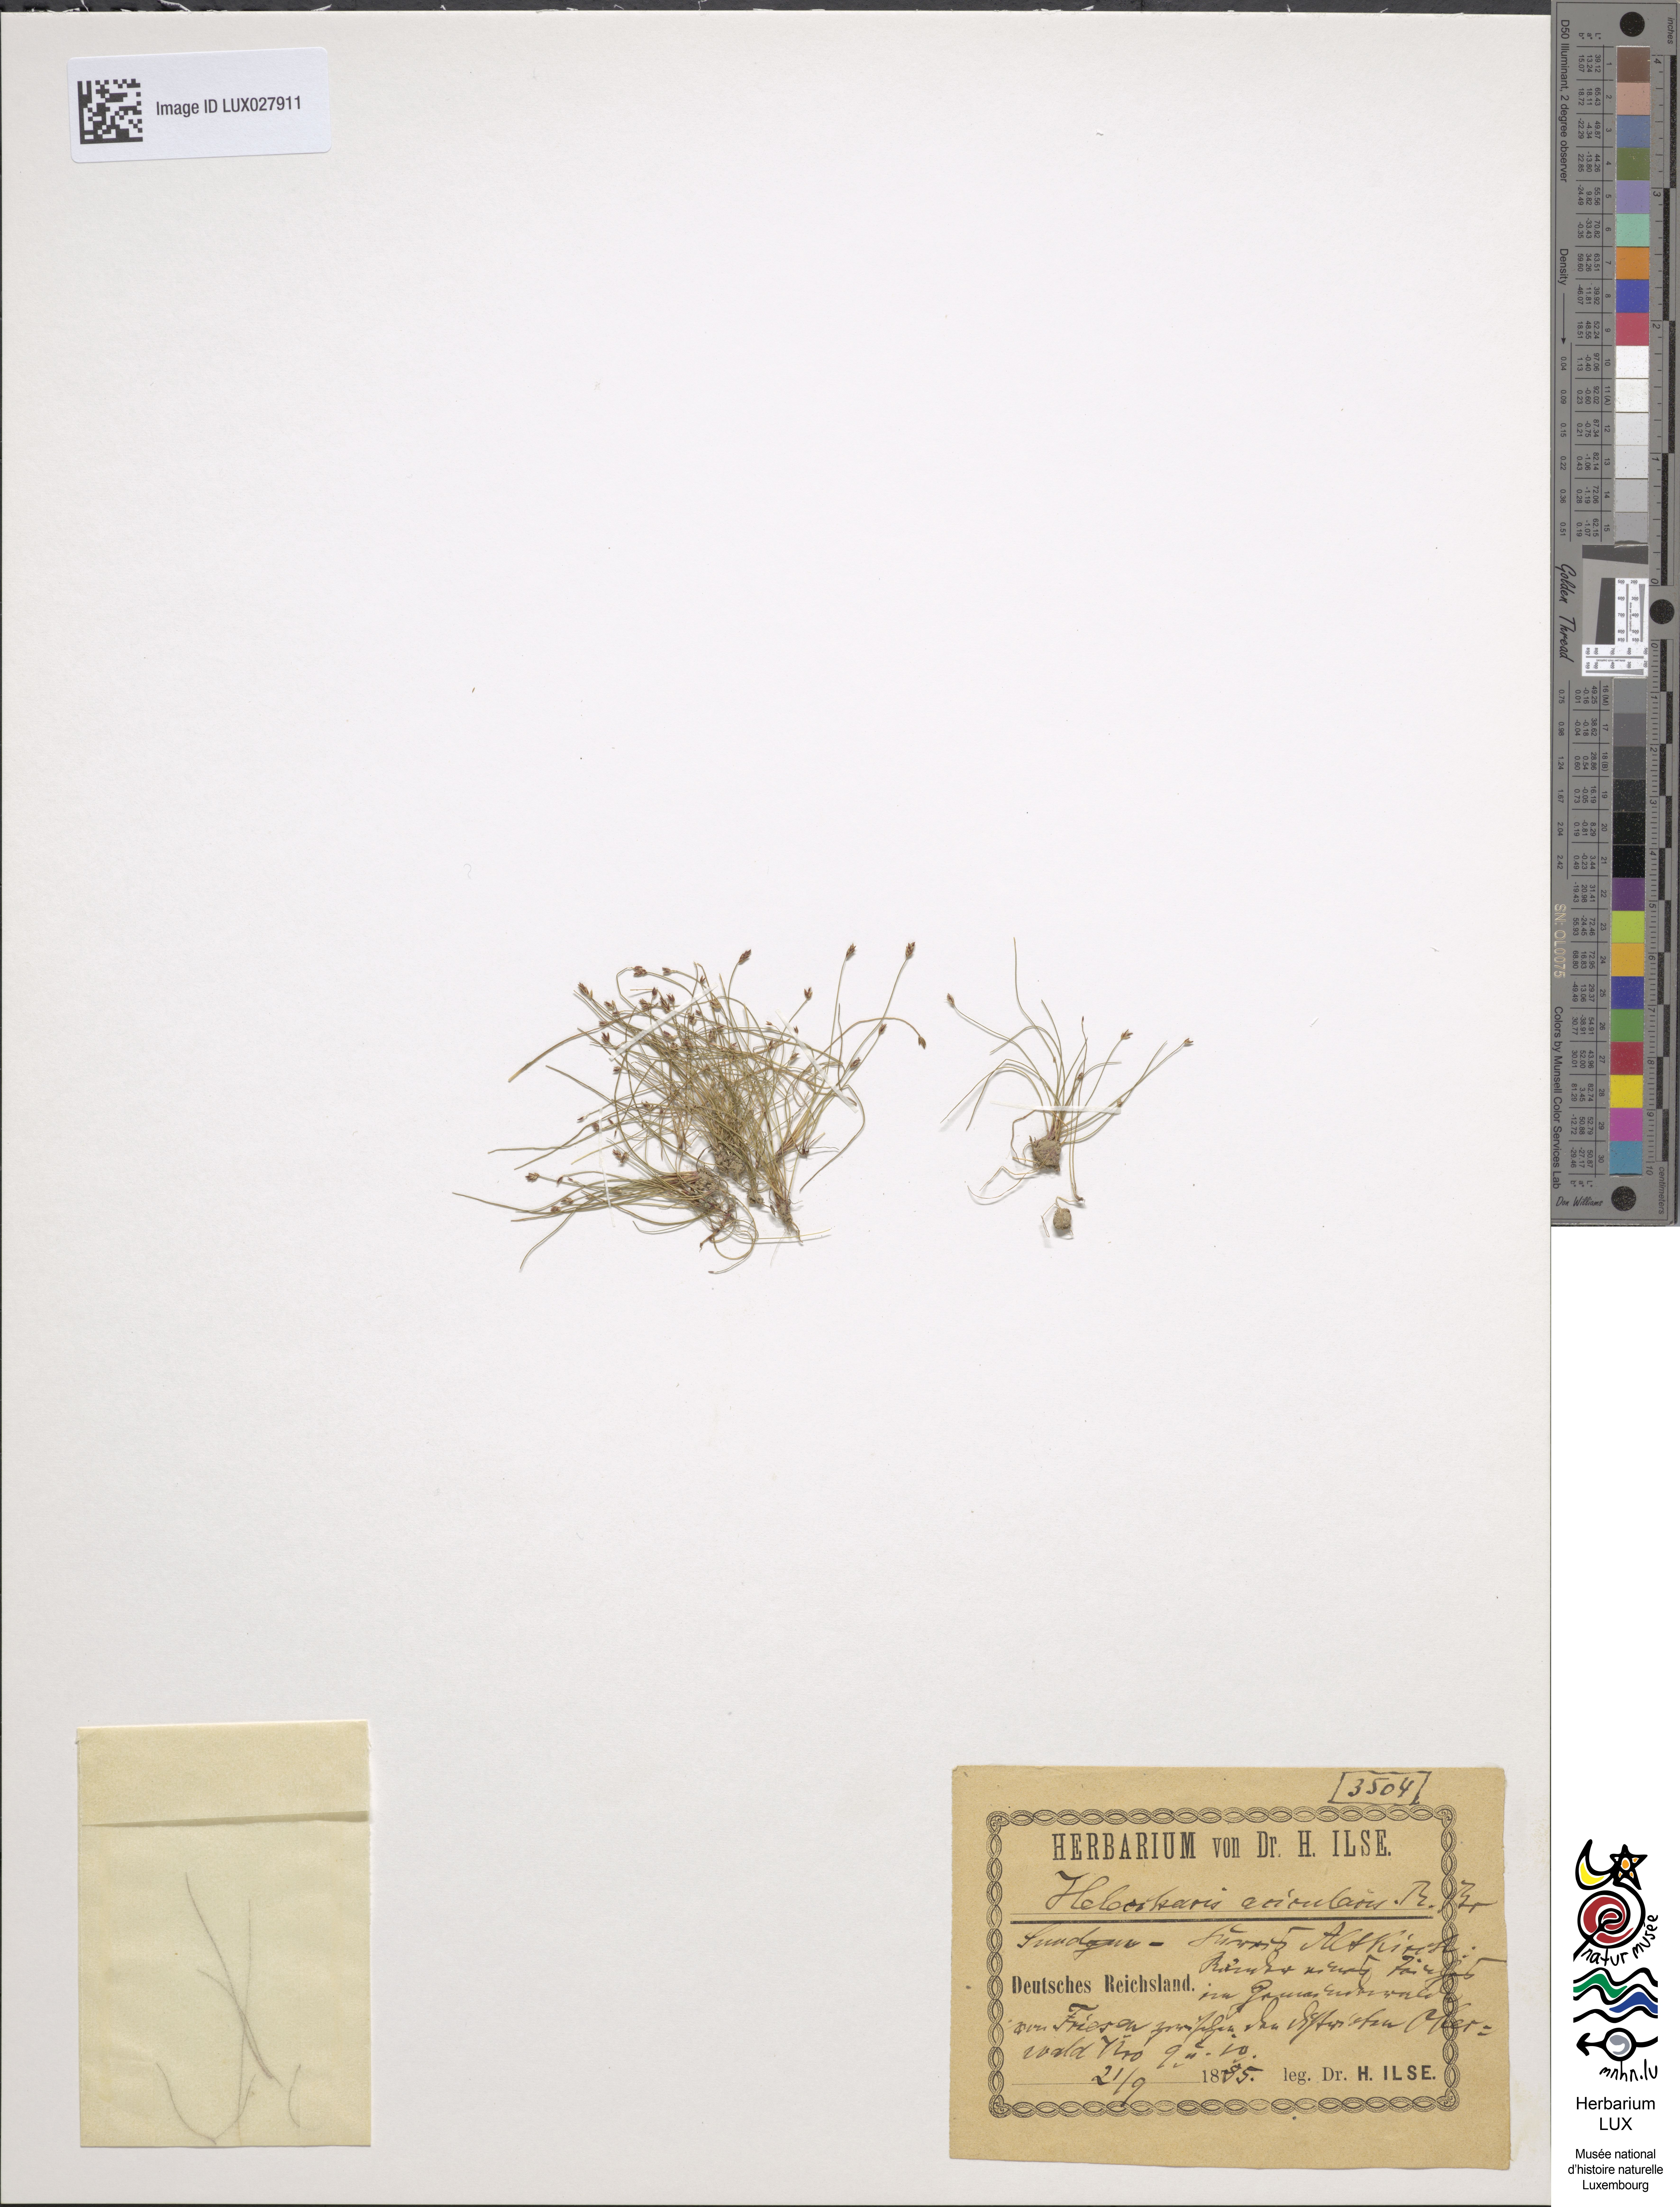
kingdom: Plantae
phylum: Tracheophyta
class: Liliopsida
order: Poales
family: Cyperaceae
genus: Eleocharis
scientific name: Eleocharis acicularis
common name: Needle spike-rush
